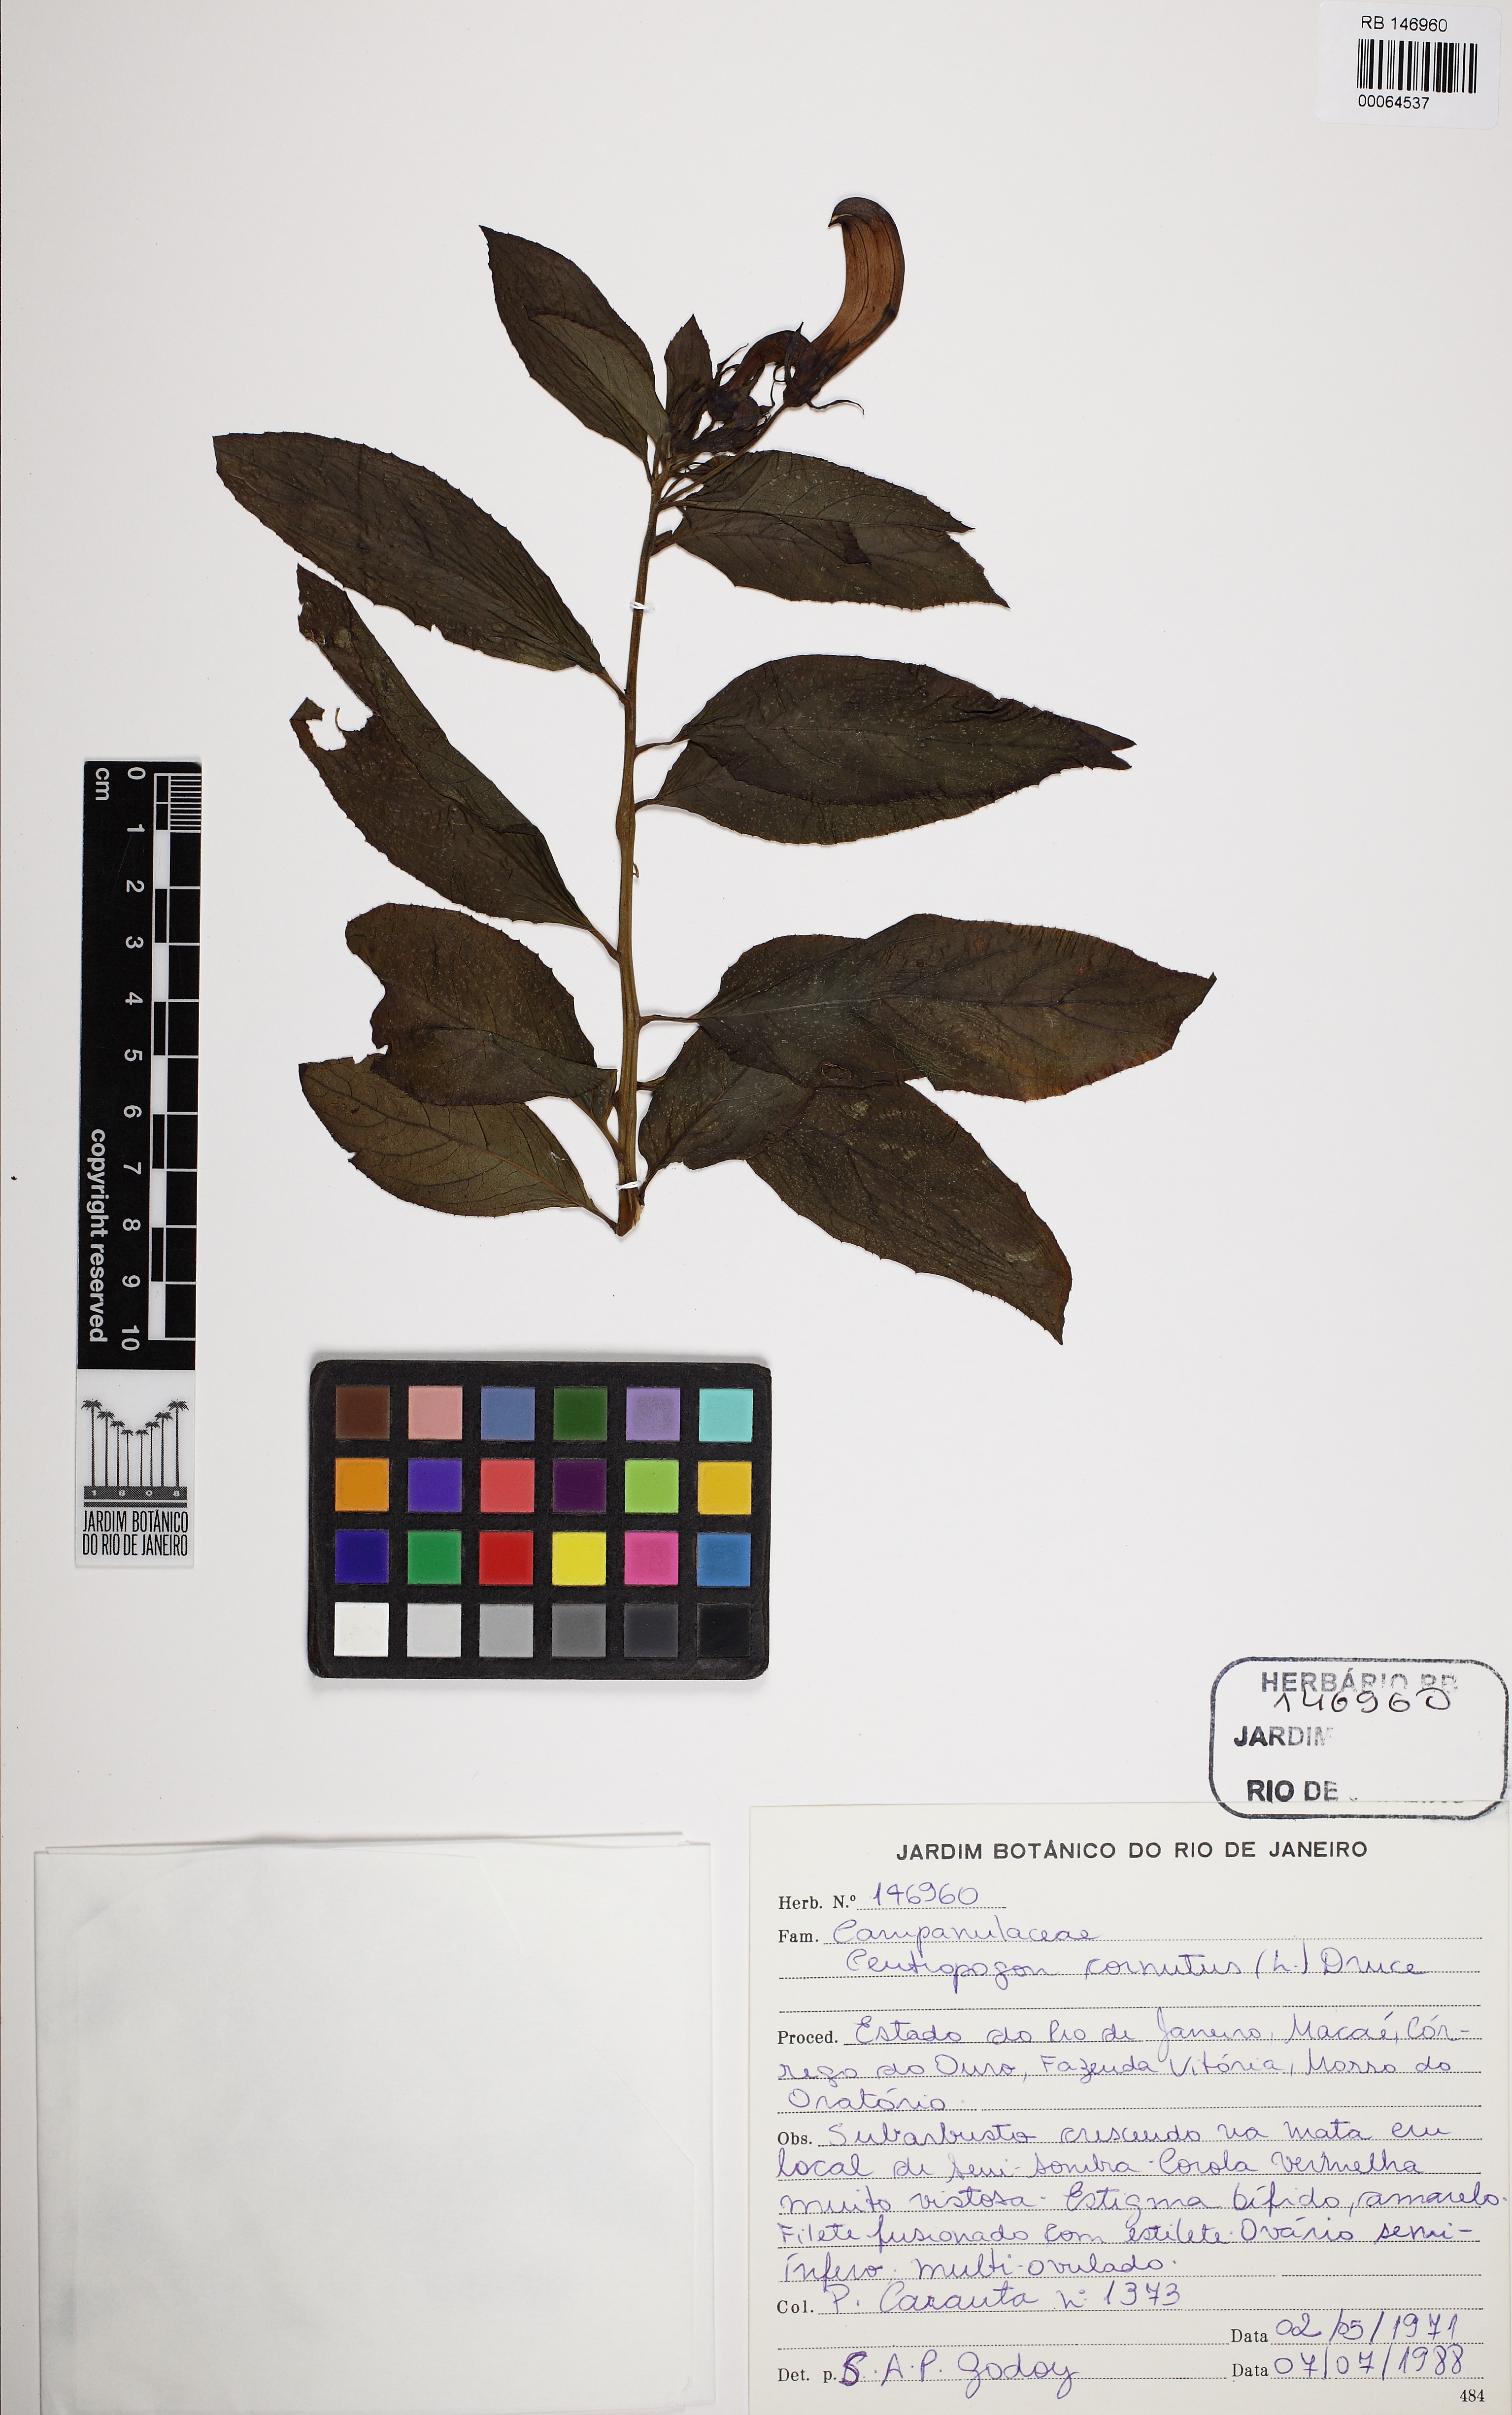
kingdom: Plantae
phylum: Tracheophyta
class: Magnoliopsida
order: Asterales
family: Campanulaceae
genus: Centropogon
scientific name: Centropogon cornutus
